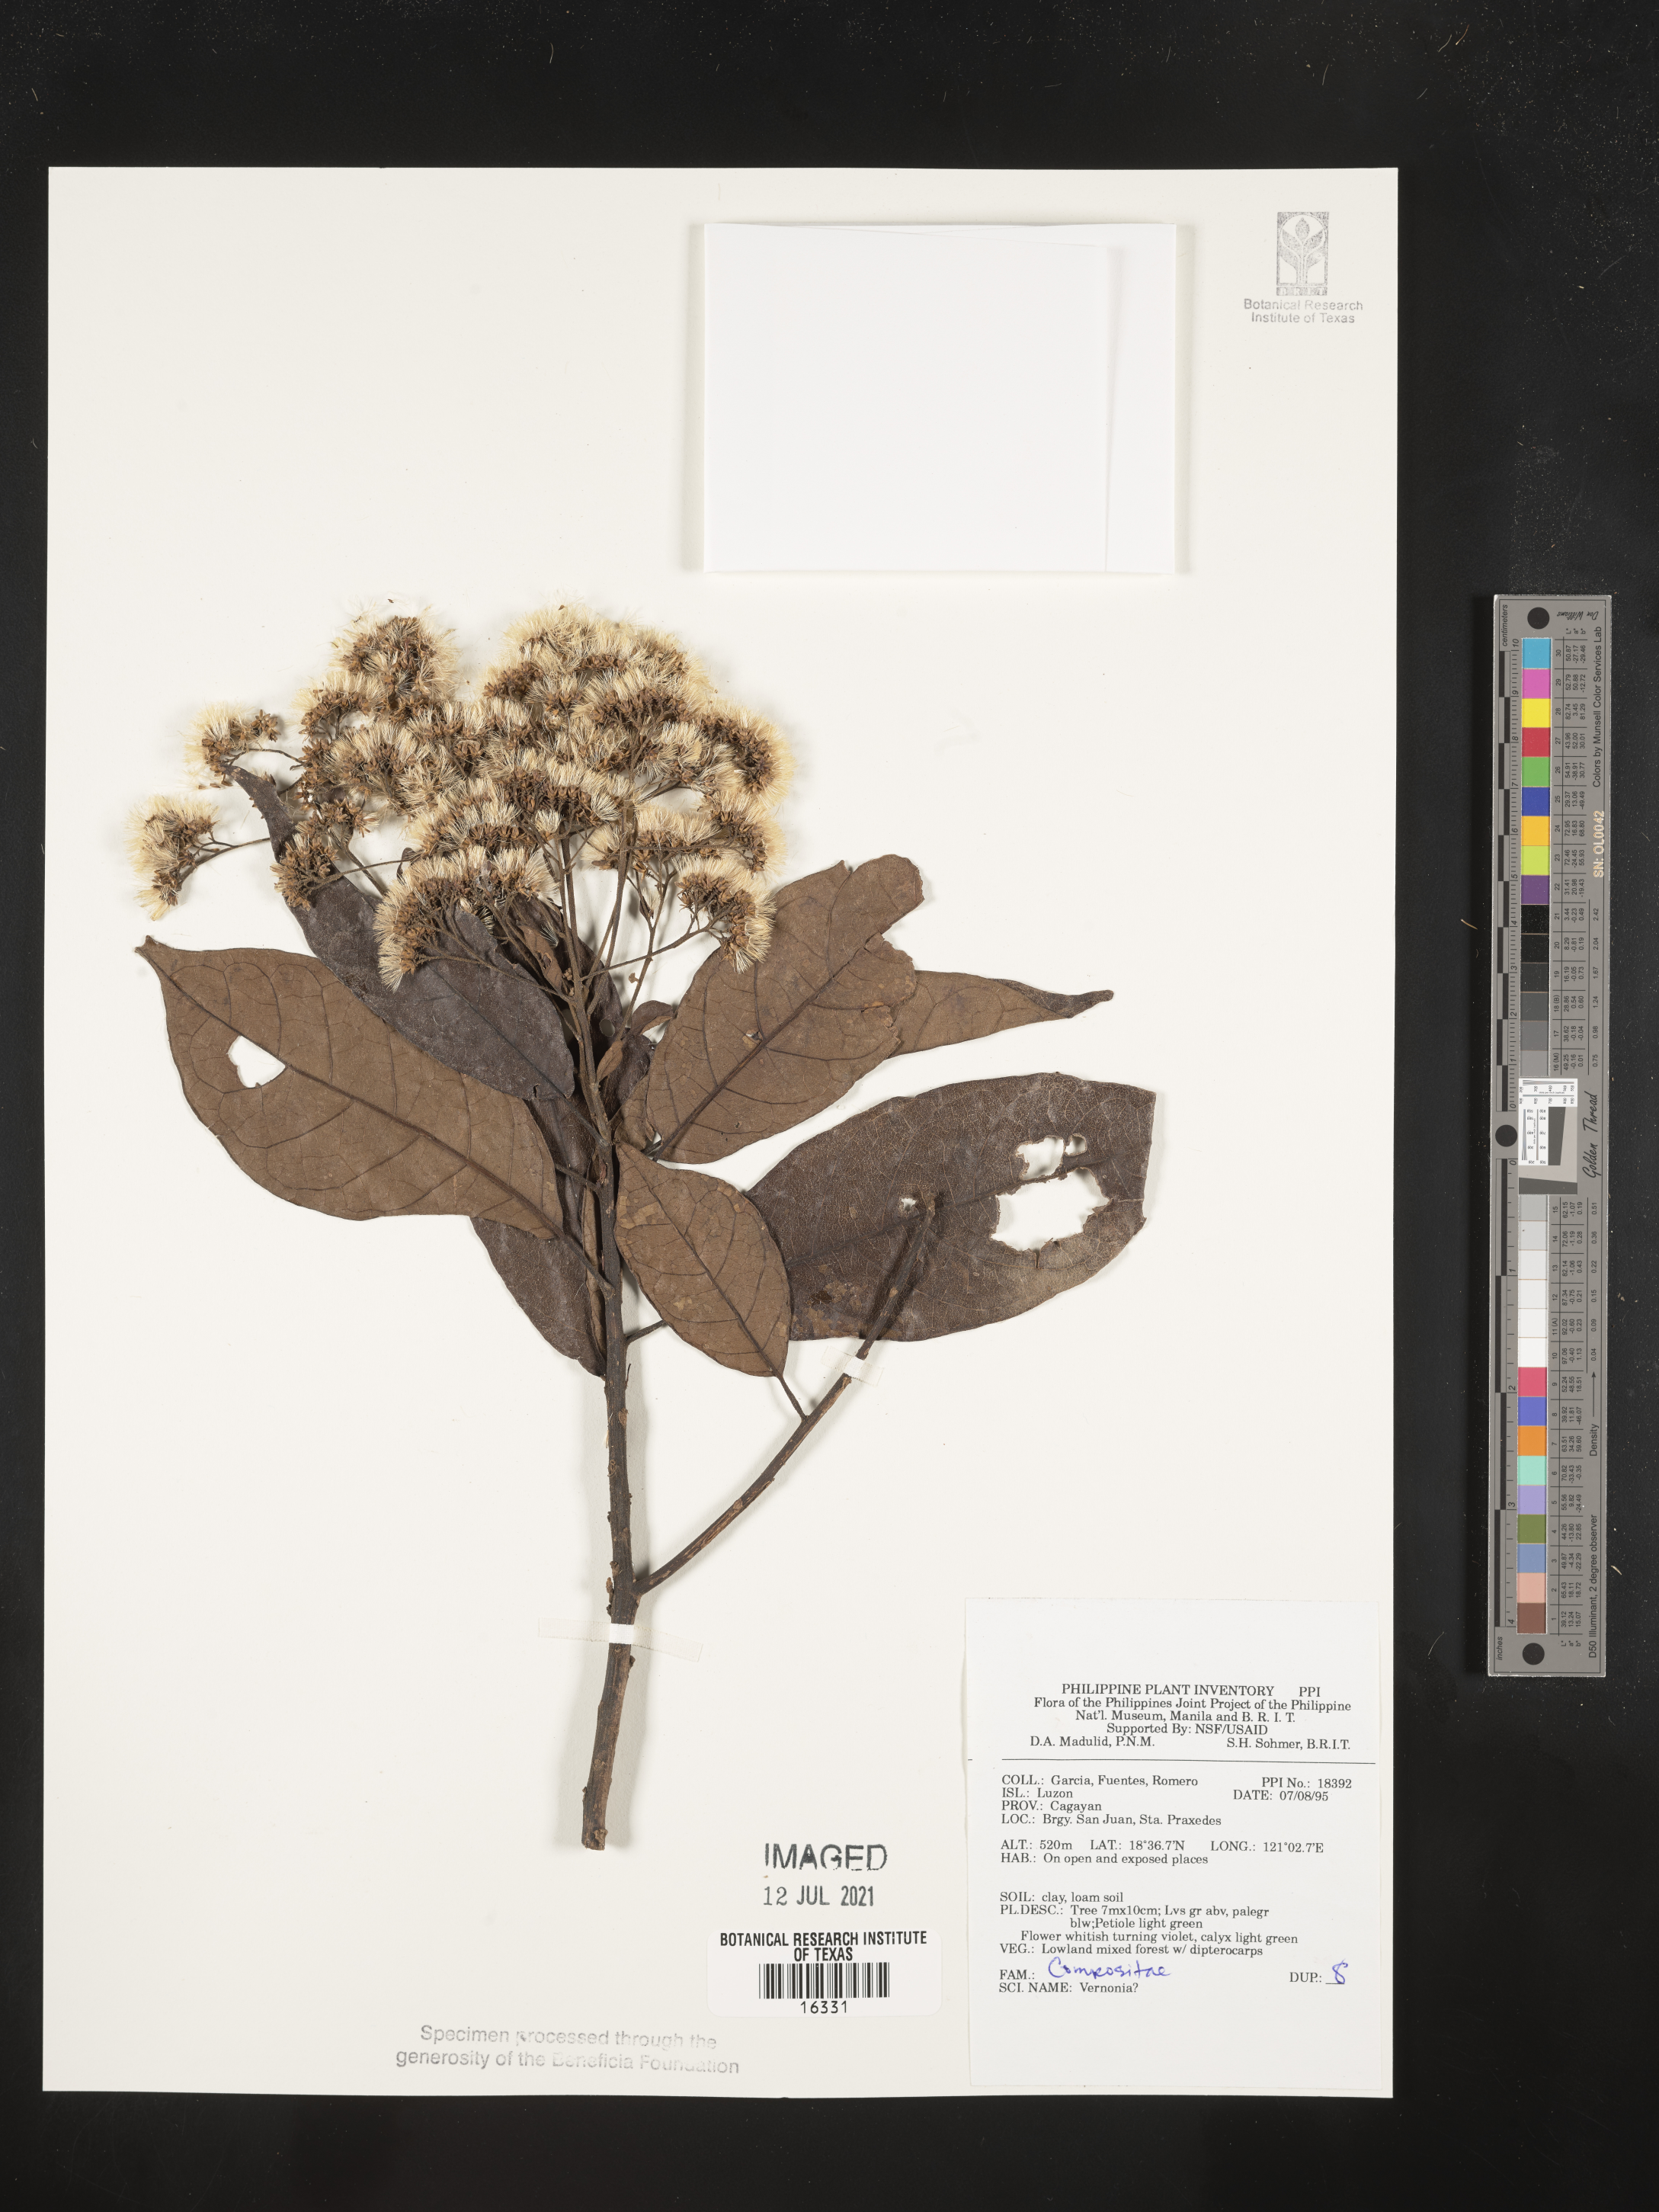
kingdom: Plantae
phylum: Tracheophyta
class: Magnoliopsida
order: Asterales
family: Asteraceae
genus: Vernonia
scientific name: Vernonia
